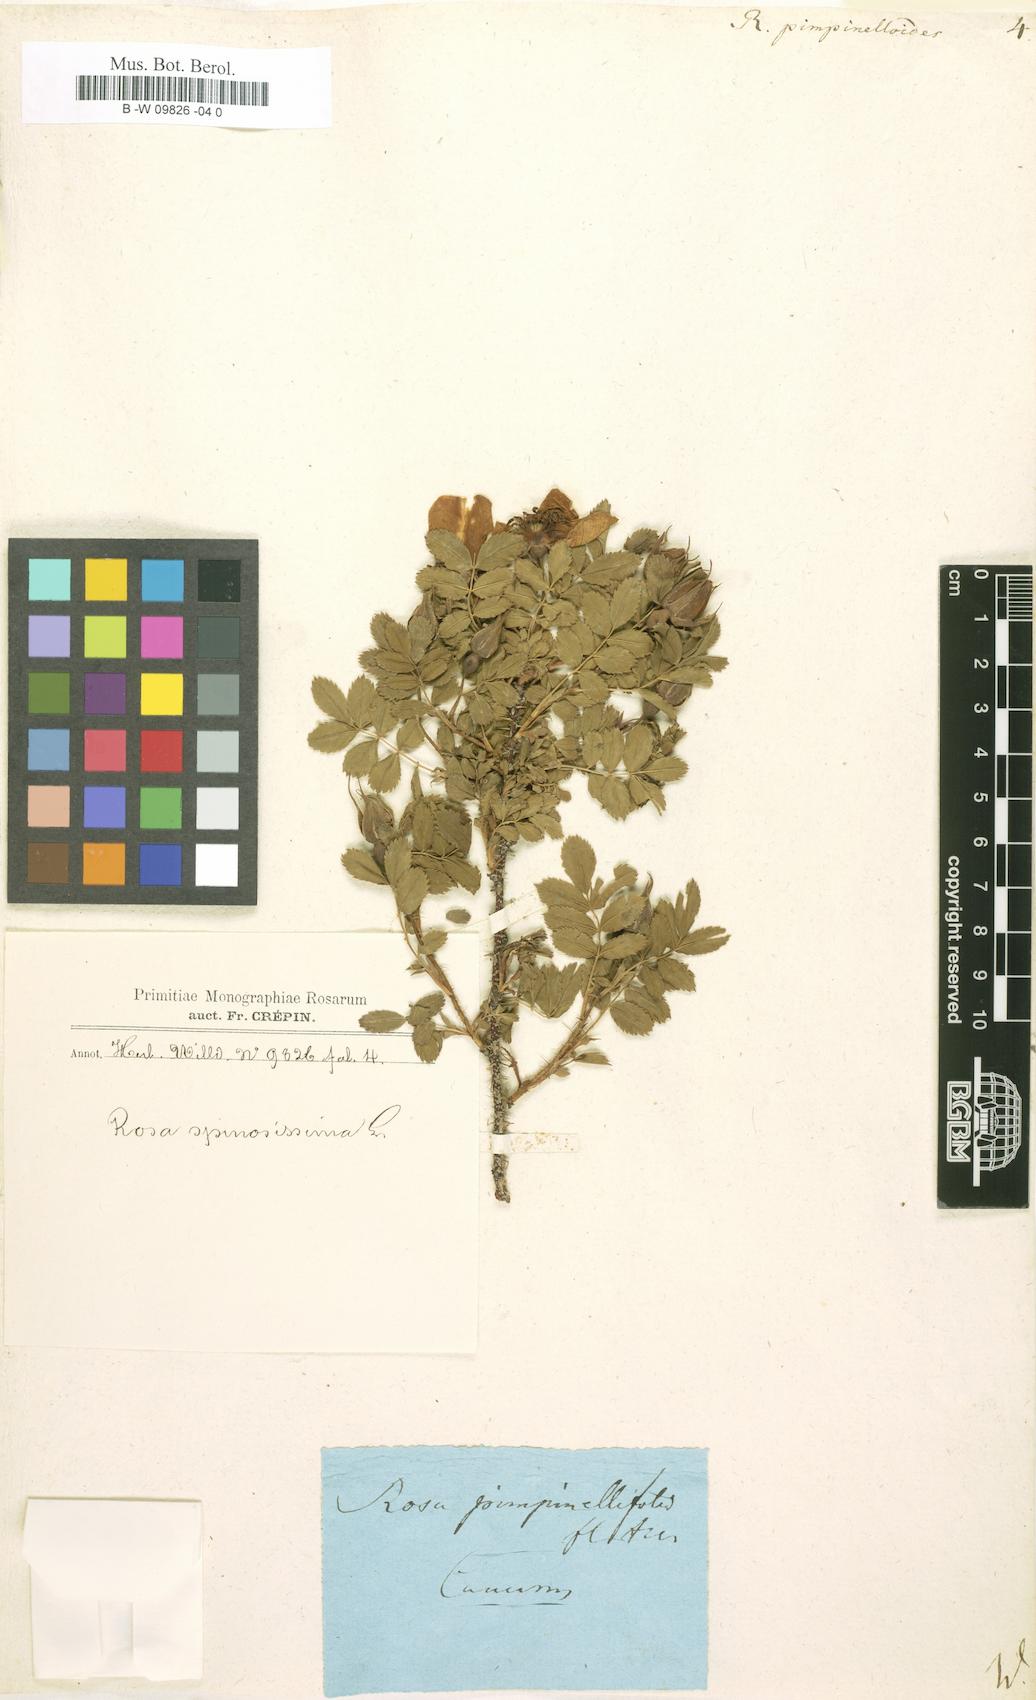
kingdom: Plantae
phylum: Tracheophyta
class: Magnoliopsida
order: Rosales
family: Rosaceae
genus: Rosa
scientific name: Rosa spinosissima
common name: Burnet rose
